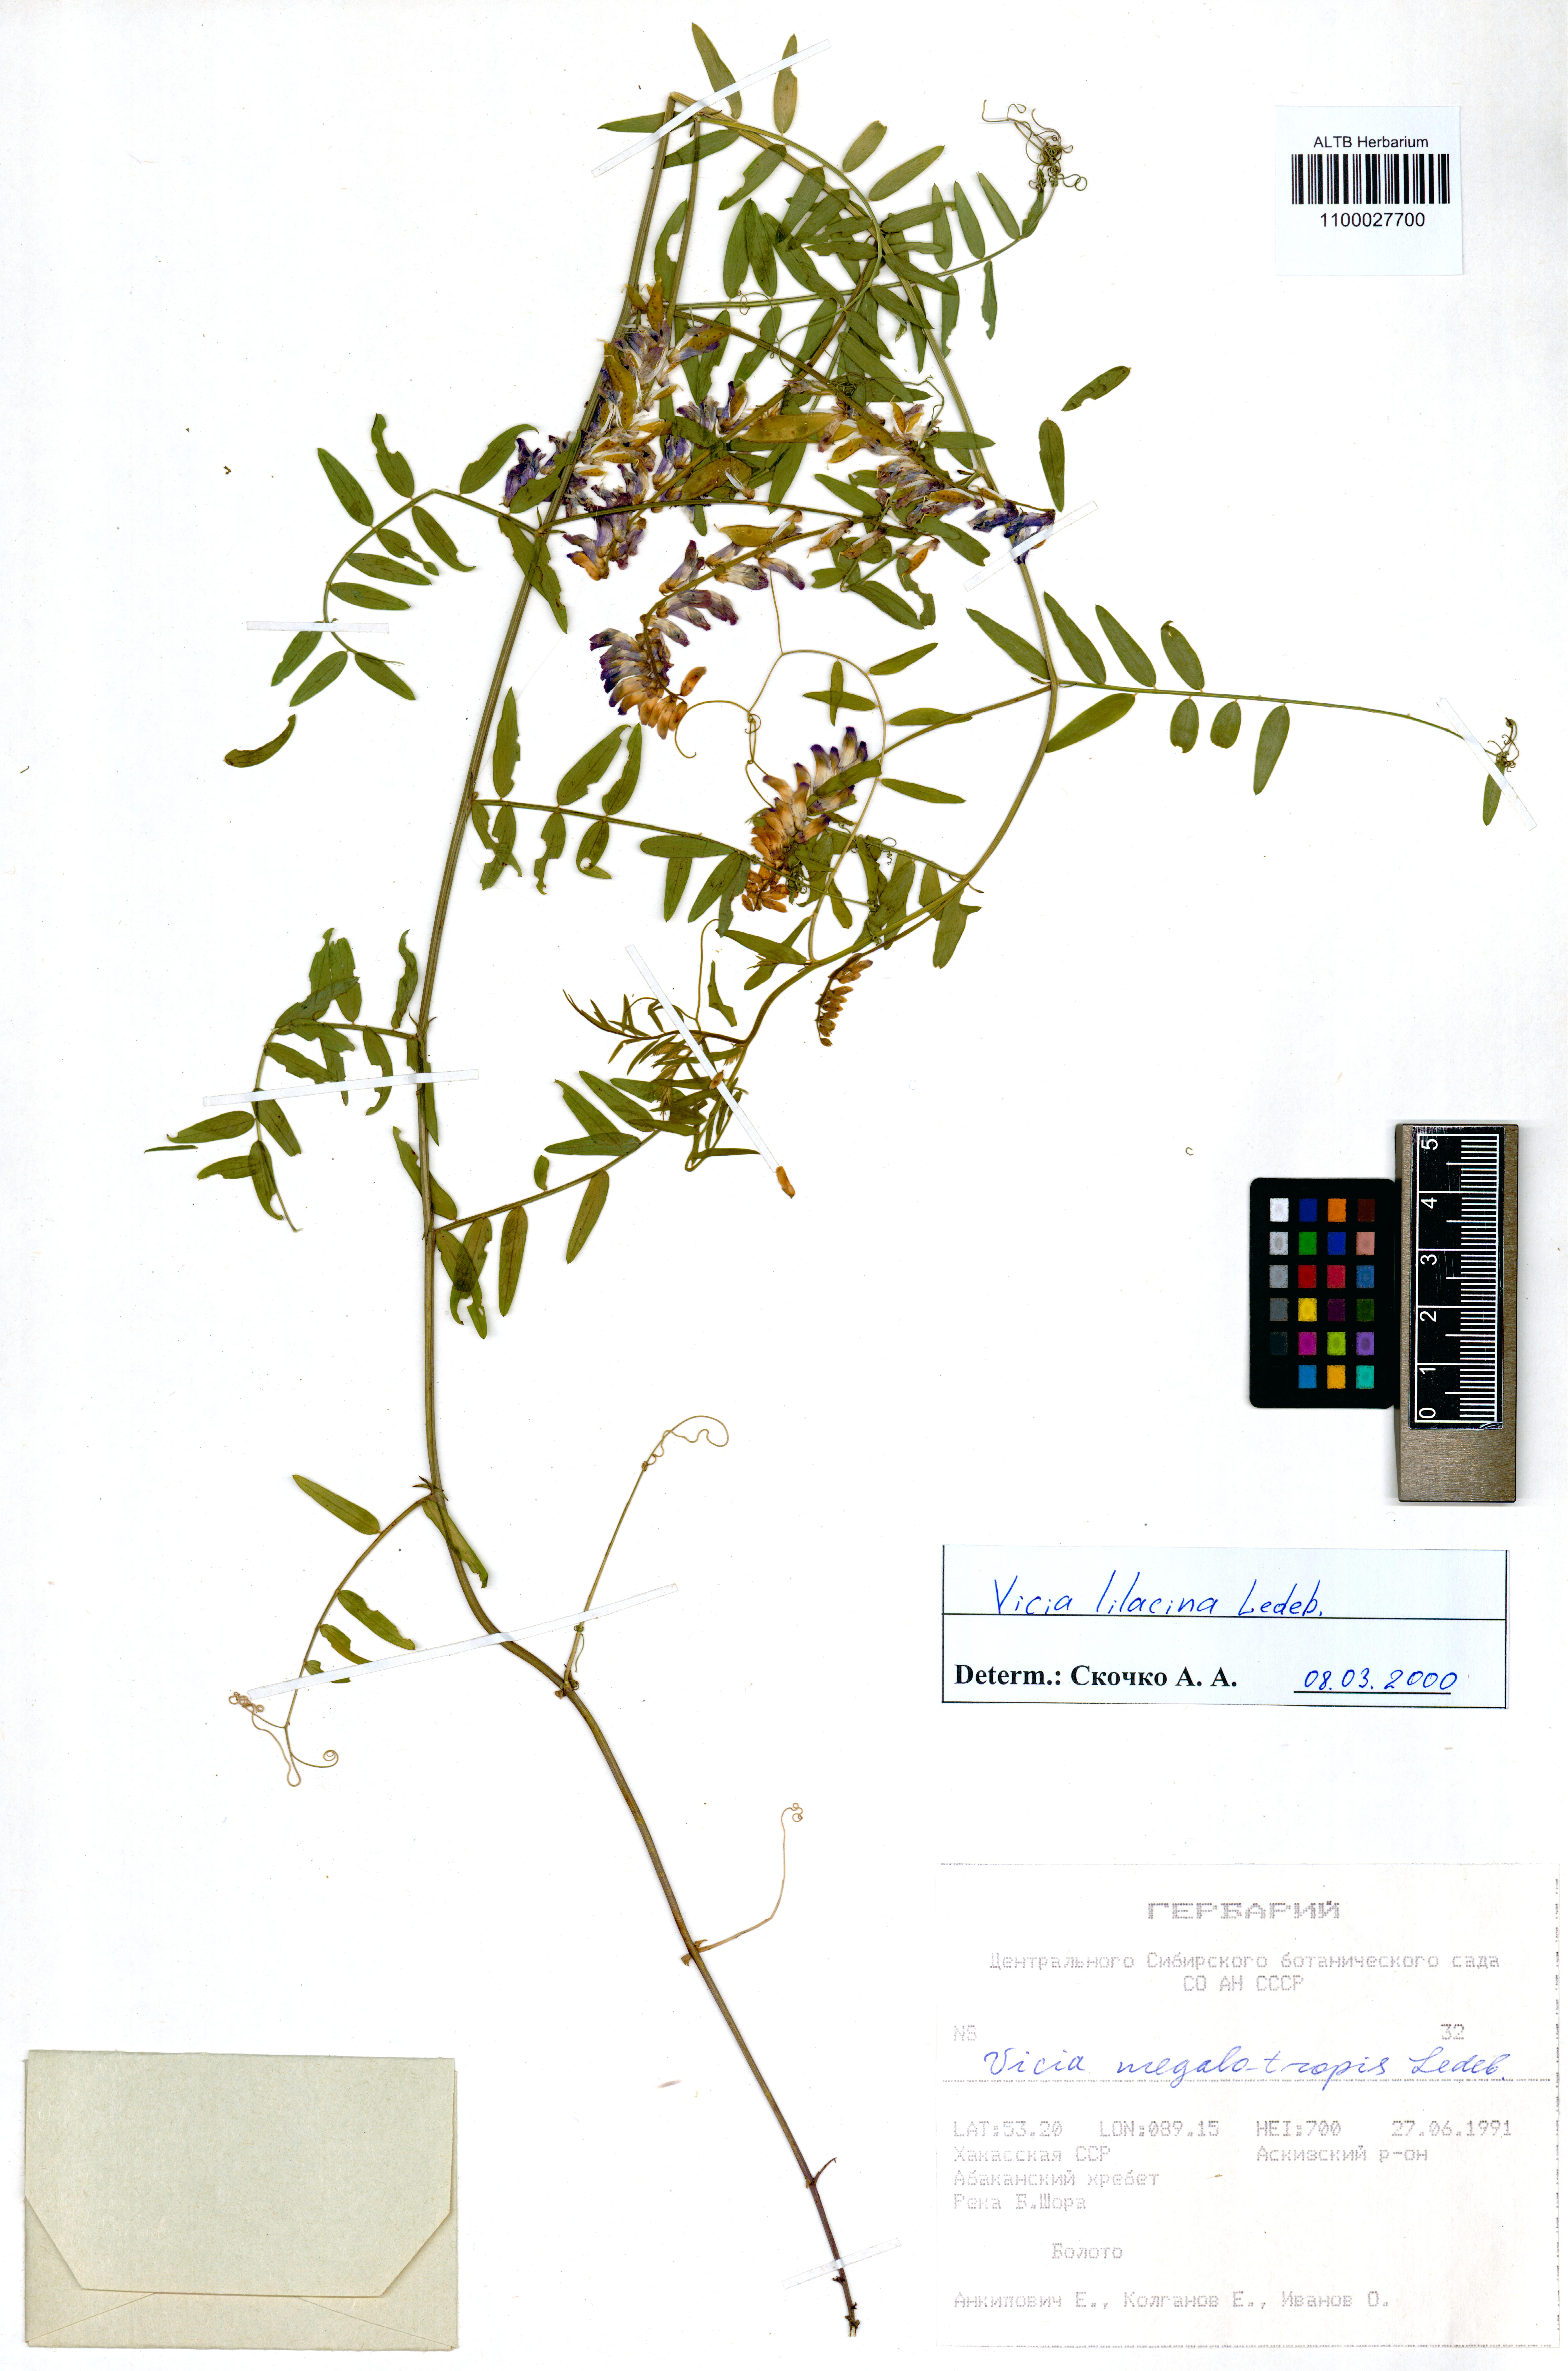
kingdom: Plantae
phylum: Tracheophyta
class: Magnoliopsida
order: Fabales
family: Fabaceae
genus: Vicia
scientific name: Vicia lilacina
